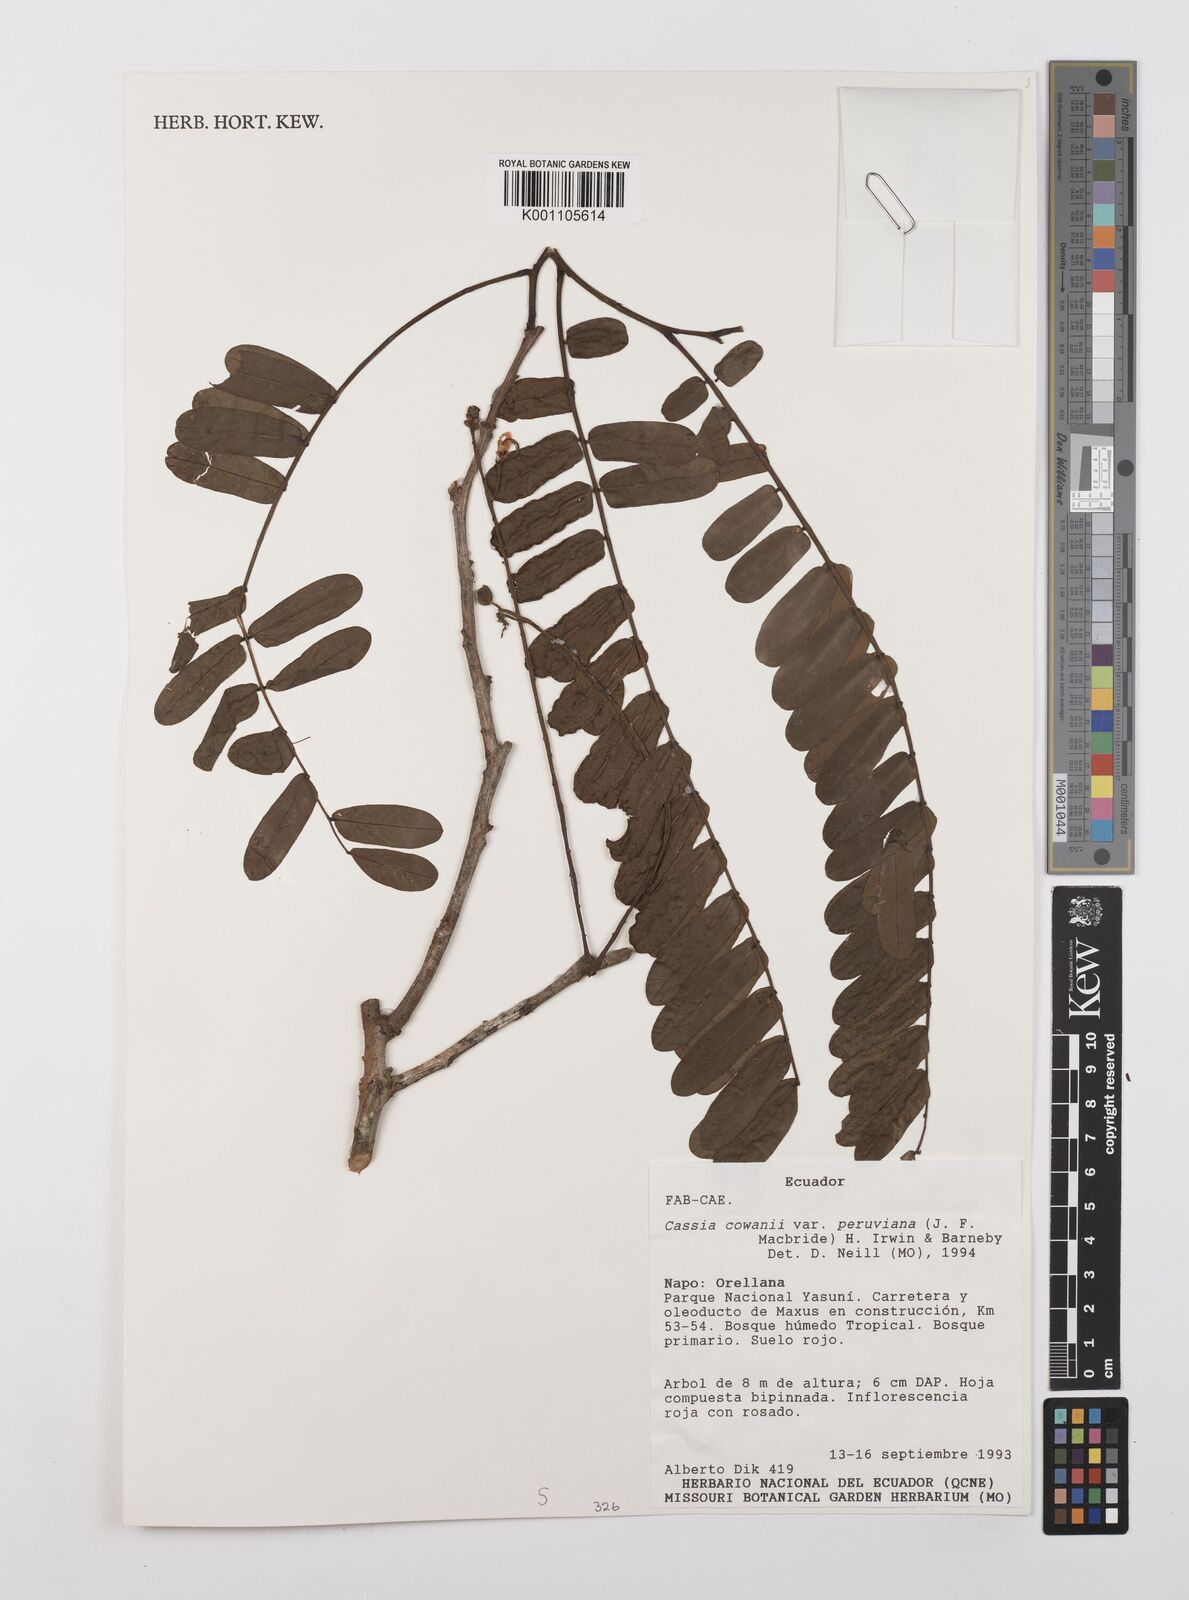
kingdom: Plantae
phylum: Tracheophyta
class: Magnoliopsida
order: Fabales
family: Fabaceae
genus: Cassia
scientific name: Cassia cowanii
